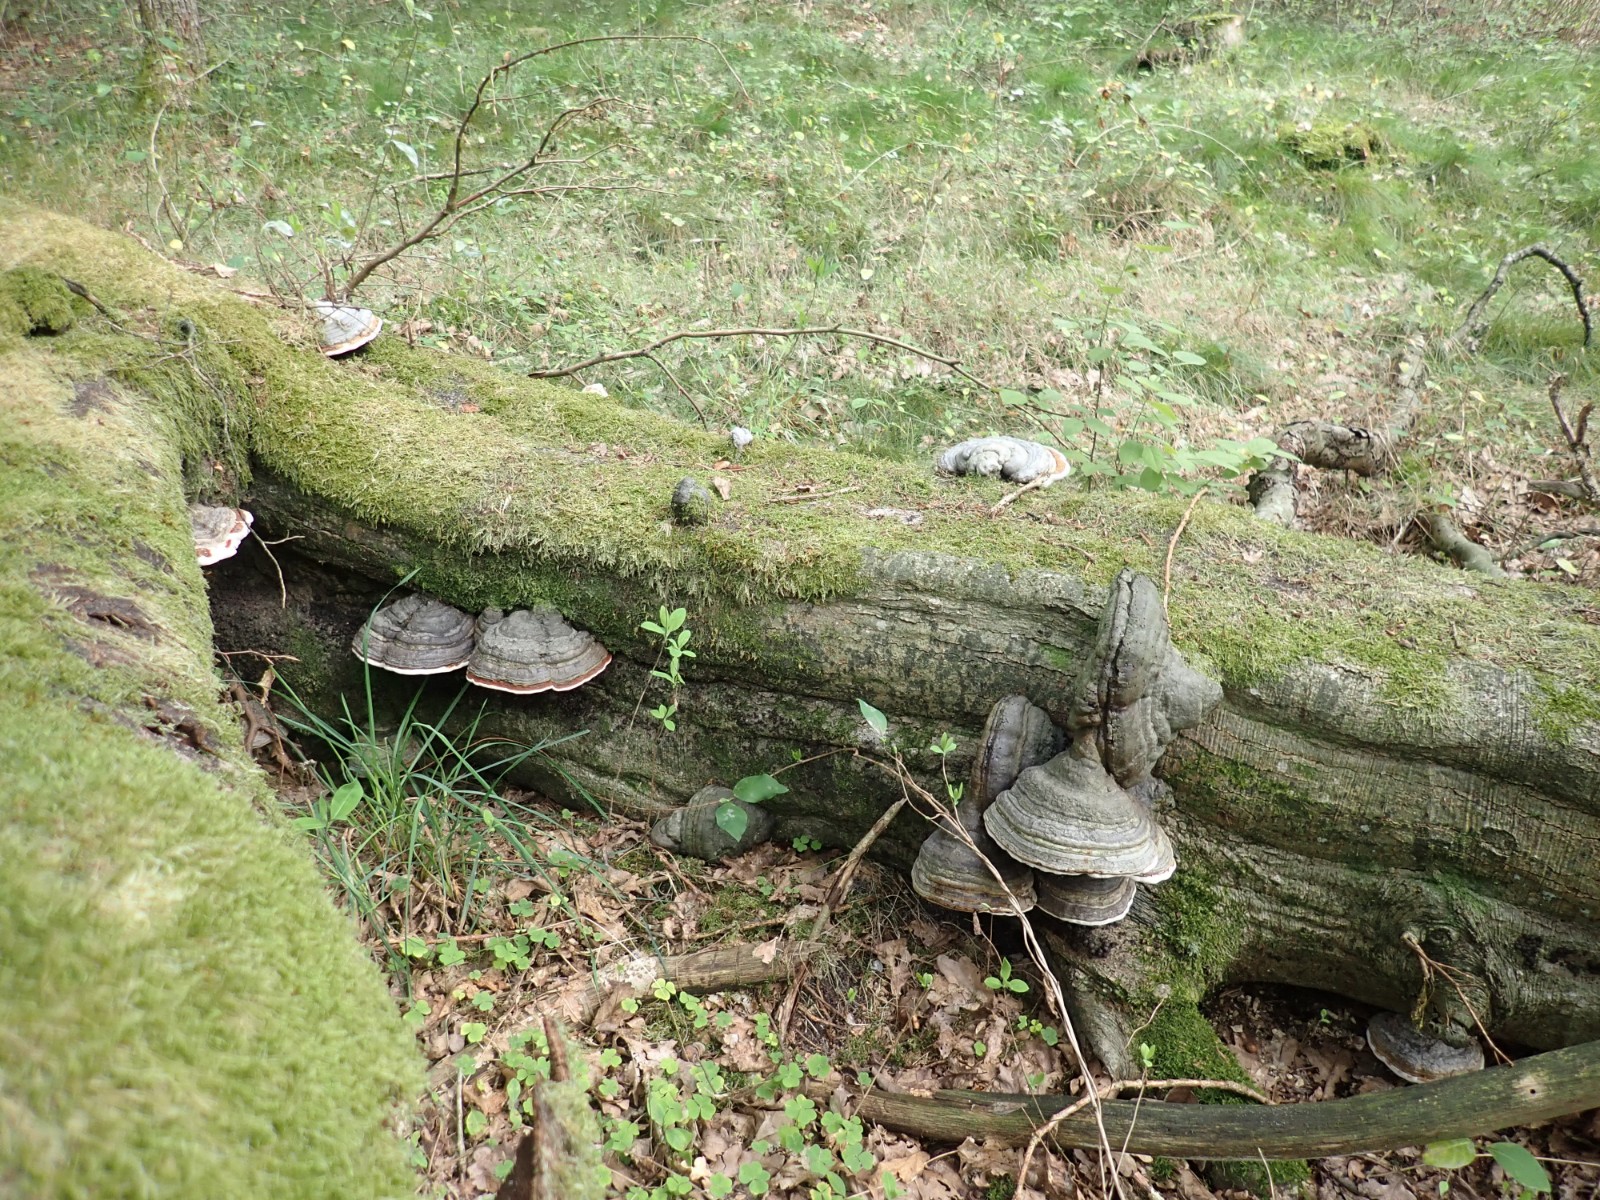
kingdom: Fungi
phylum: Basidiomycota
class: Agaricomycetes
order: Polyporales
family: Polyporaceae
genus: Fomes
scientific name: Fomes fomentarius
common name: tøndersvamp
